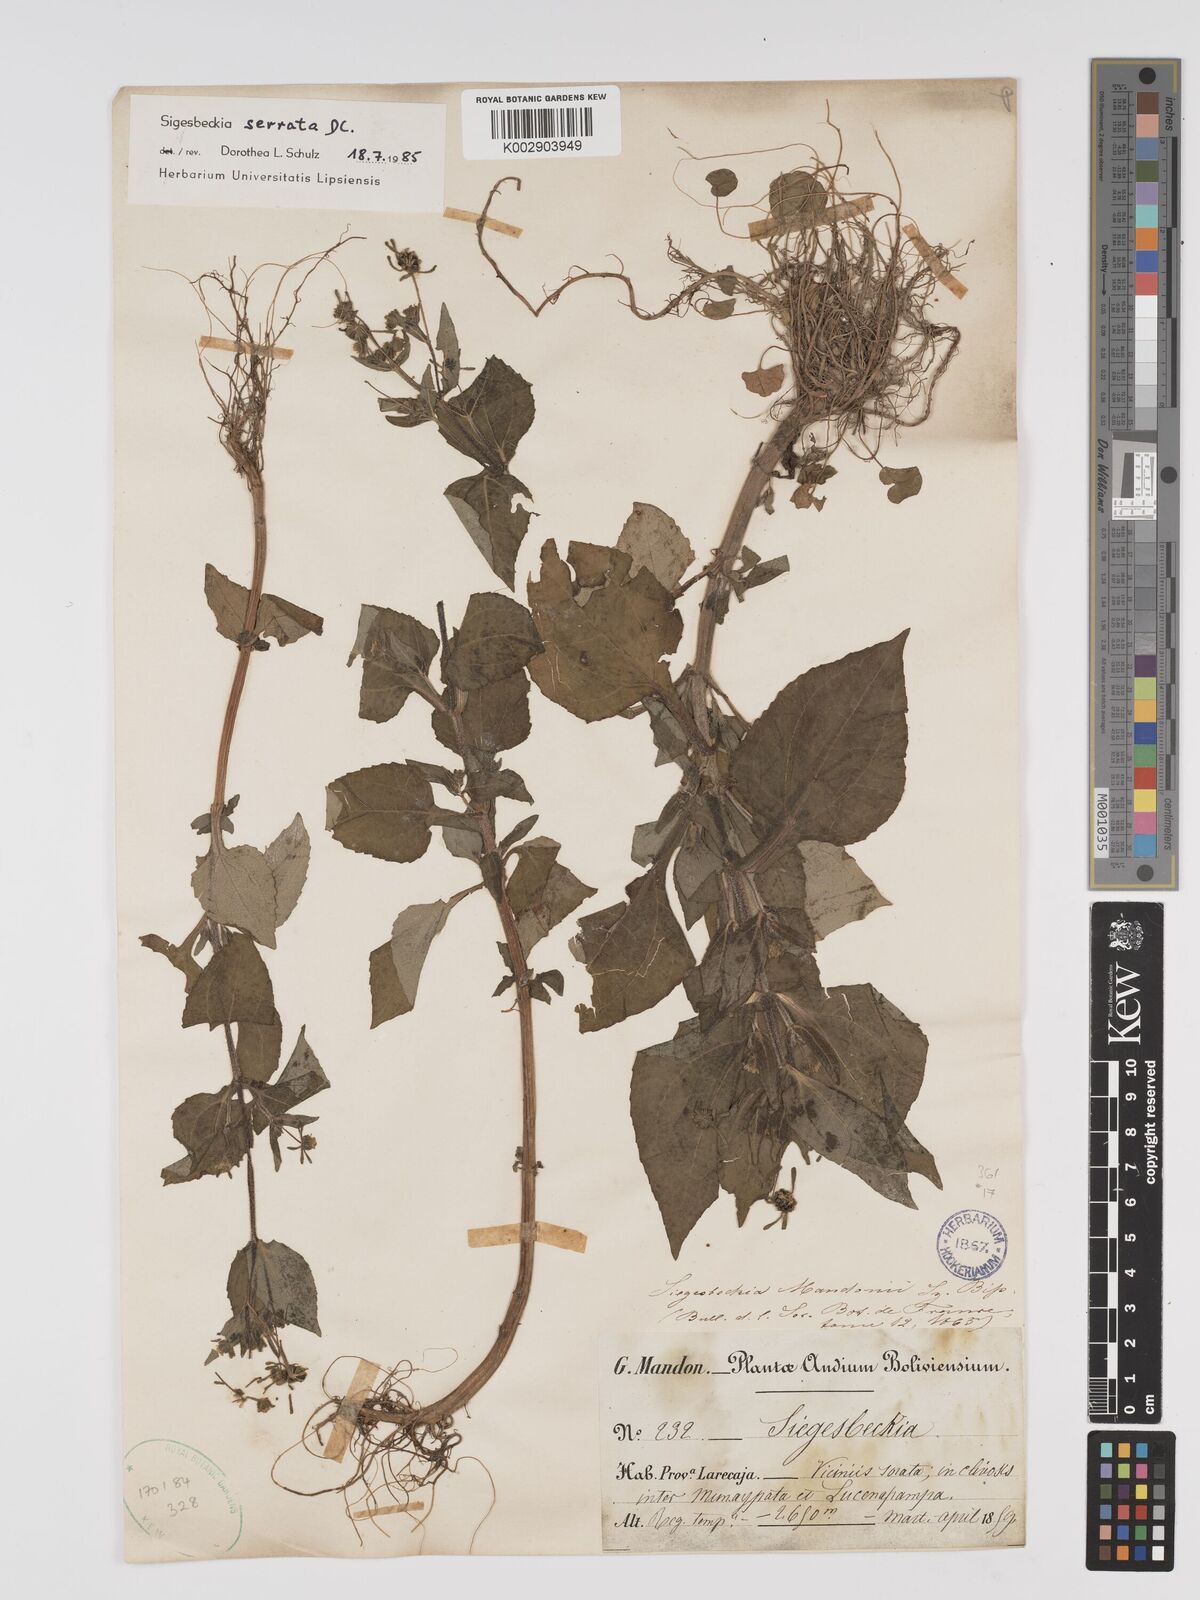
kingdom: Plantae
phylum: Tracheophyta
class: Magnoliopsida
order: Asterales
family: Asteraceae
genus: Sigesbeckia
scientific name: Sigesbeckia jorullensis
